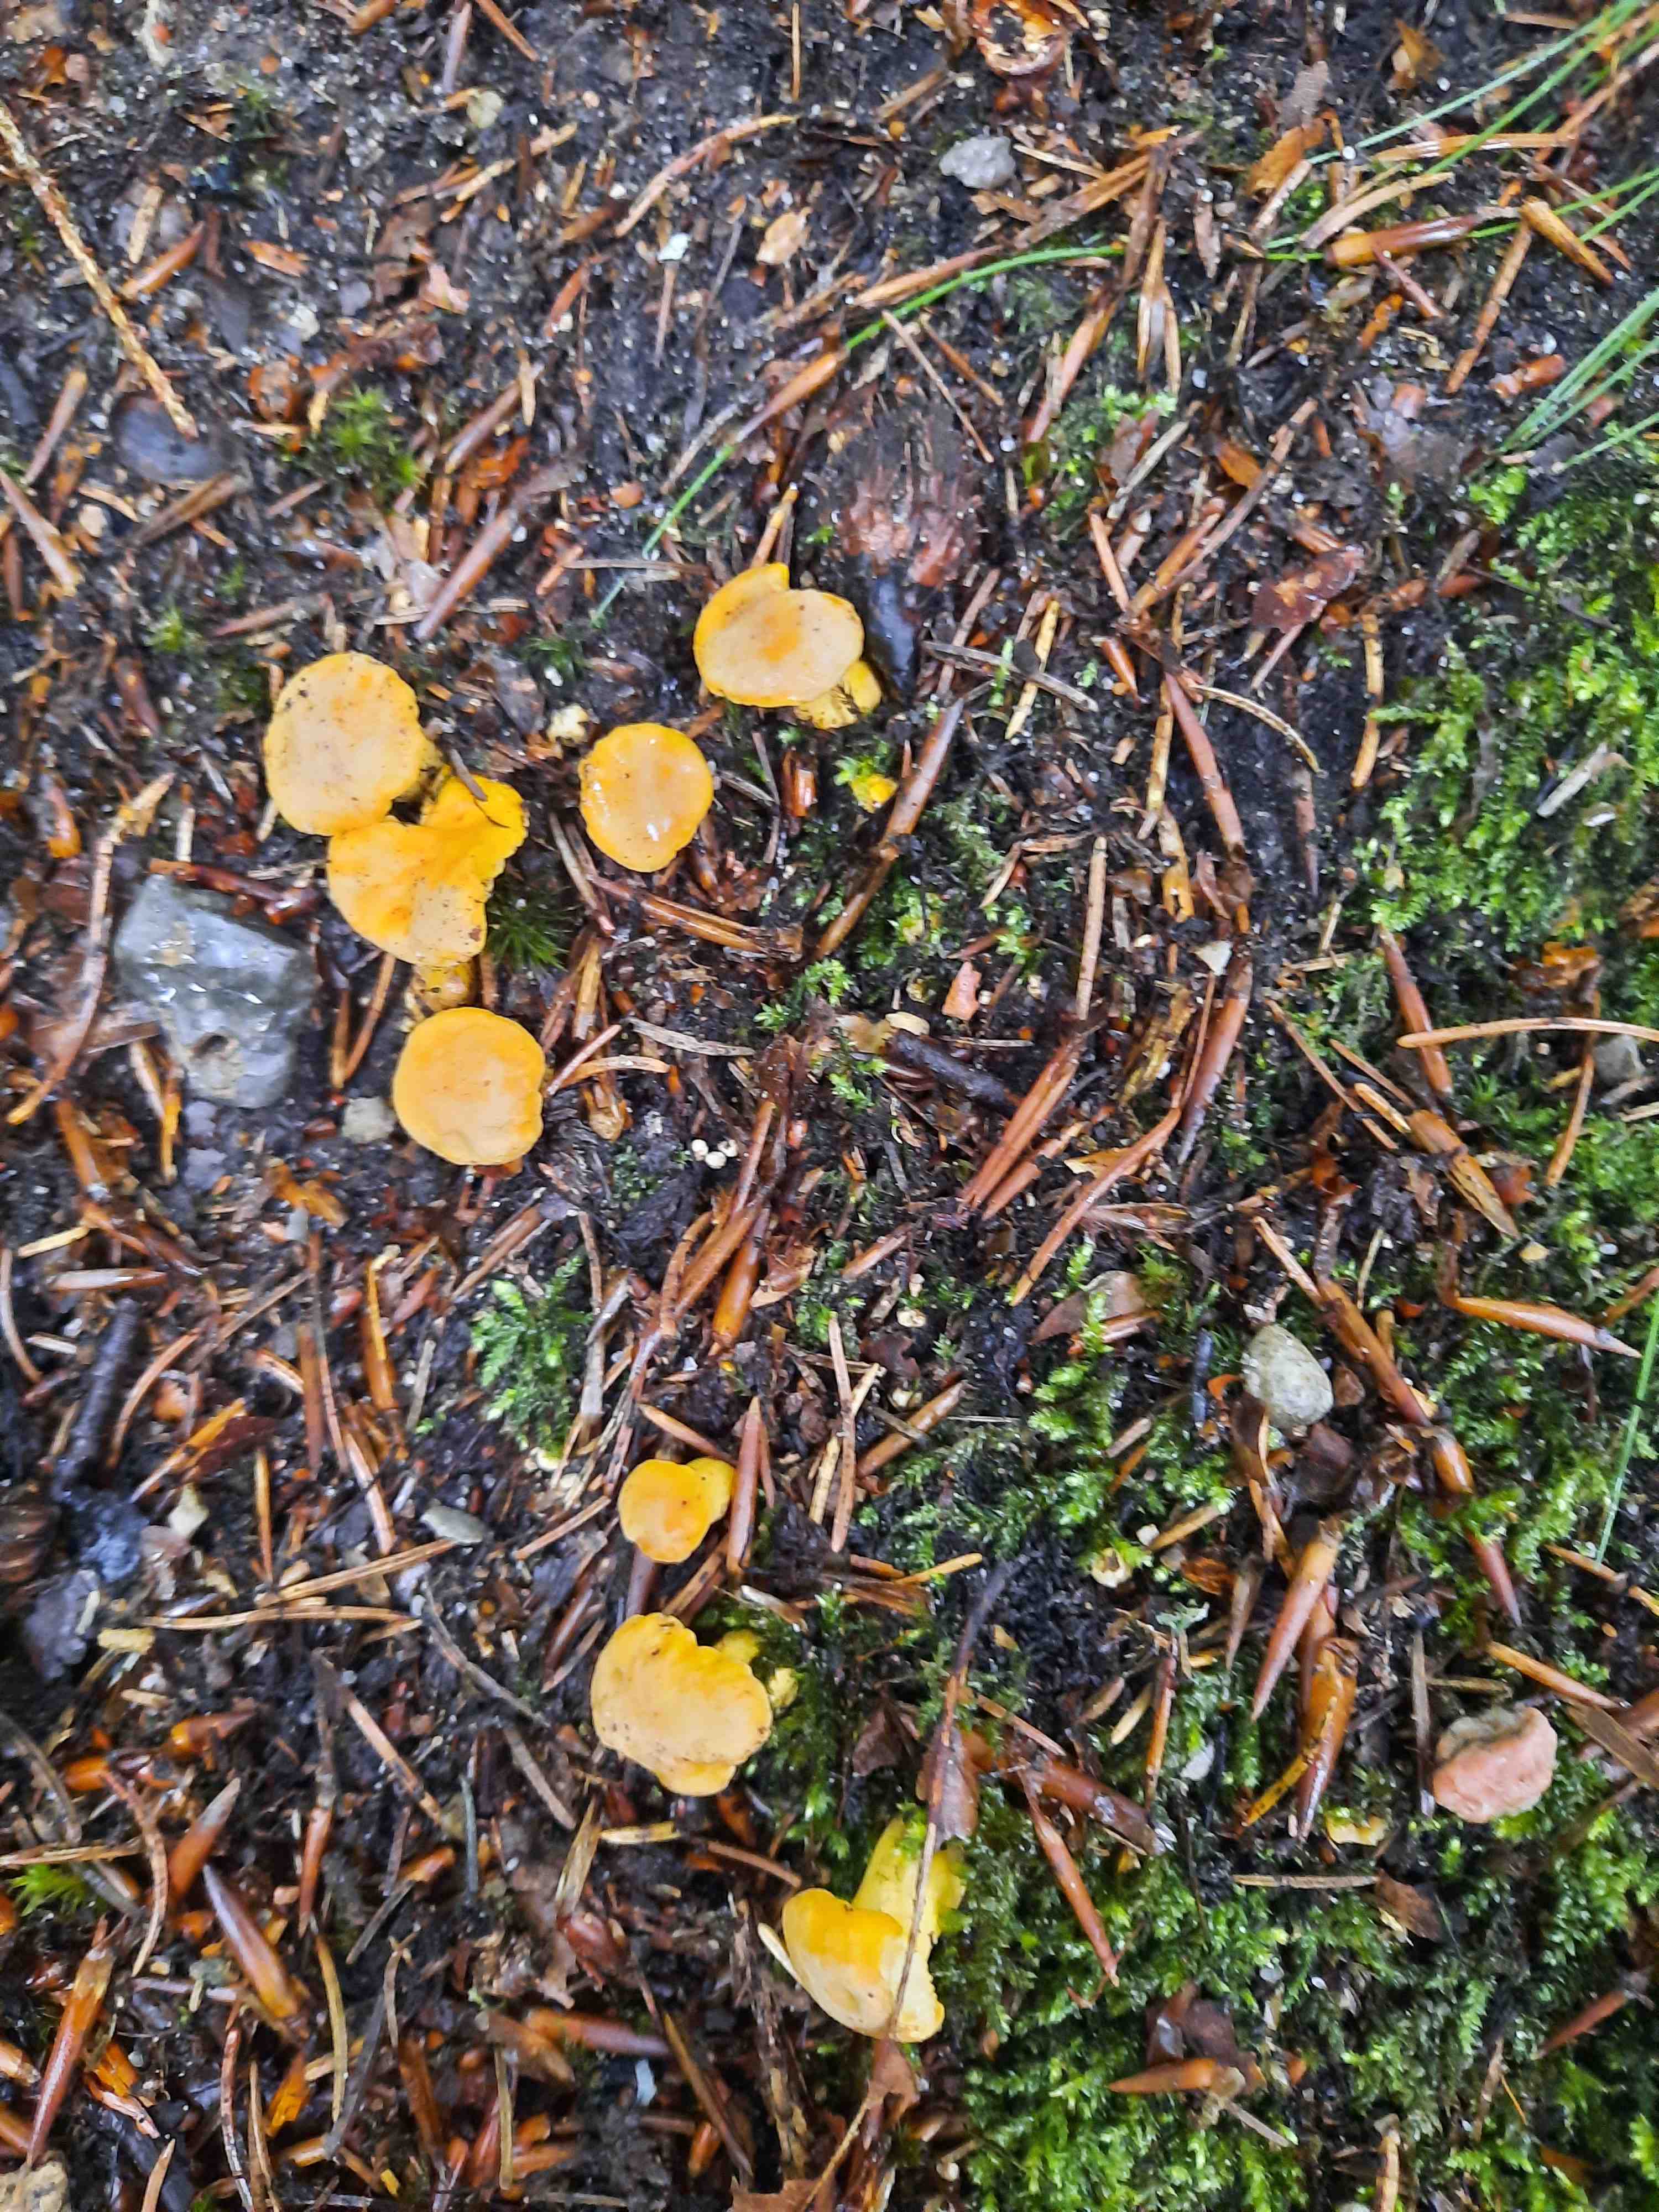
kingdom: Fungi
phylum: Basidiomycota
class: Agaricomycetes
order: Cantharellales
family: Hydnaceae
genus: Cantharellus
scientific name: Cantharellus cibarius
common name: almindelig kantarel
